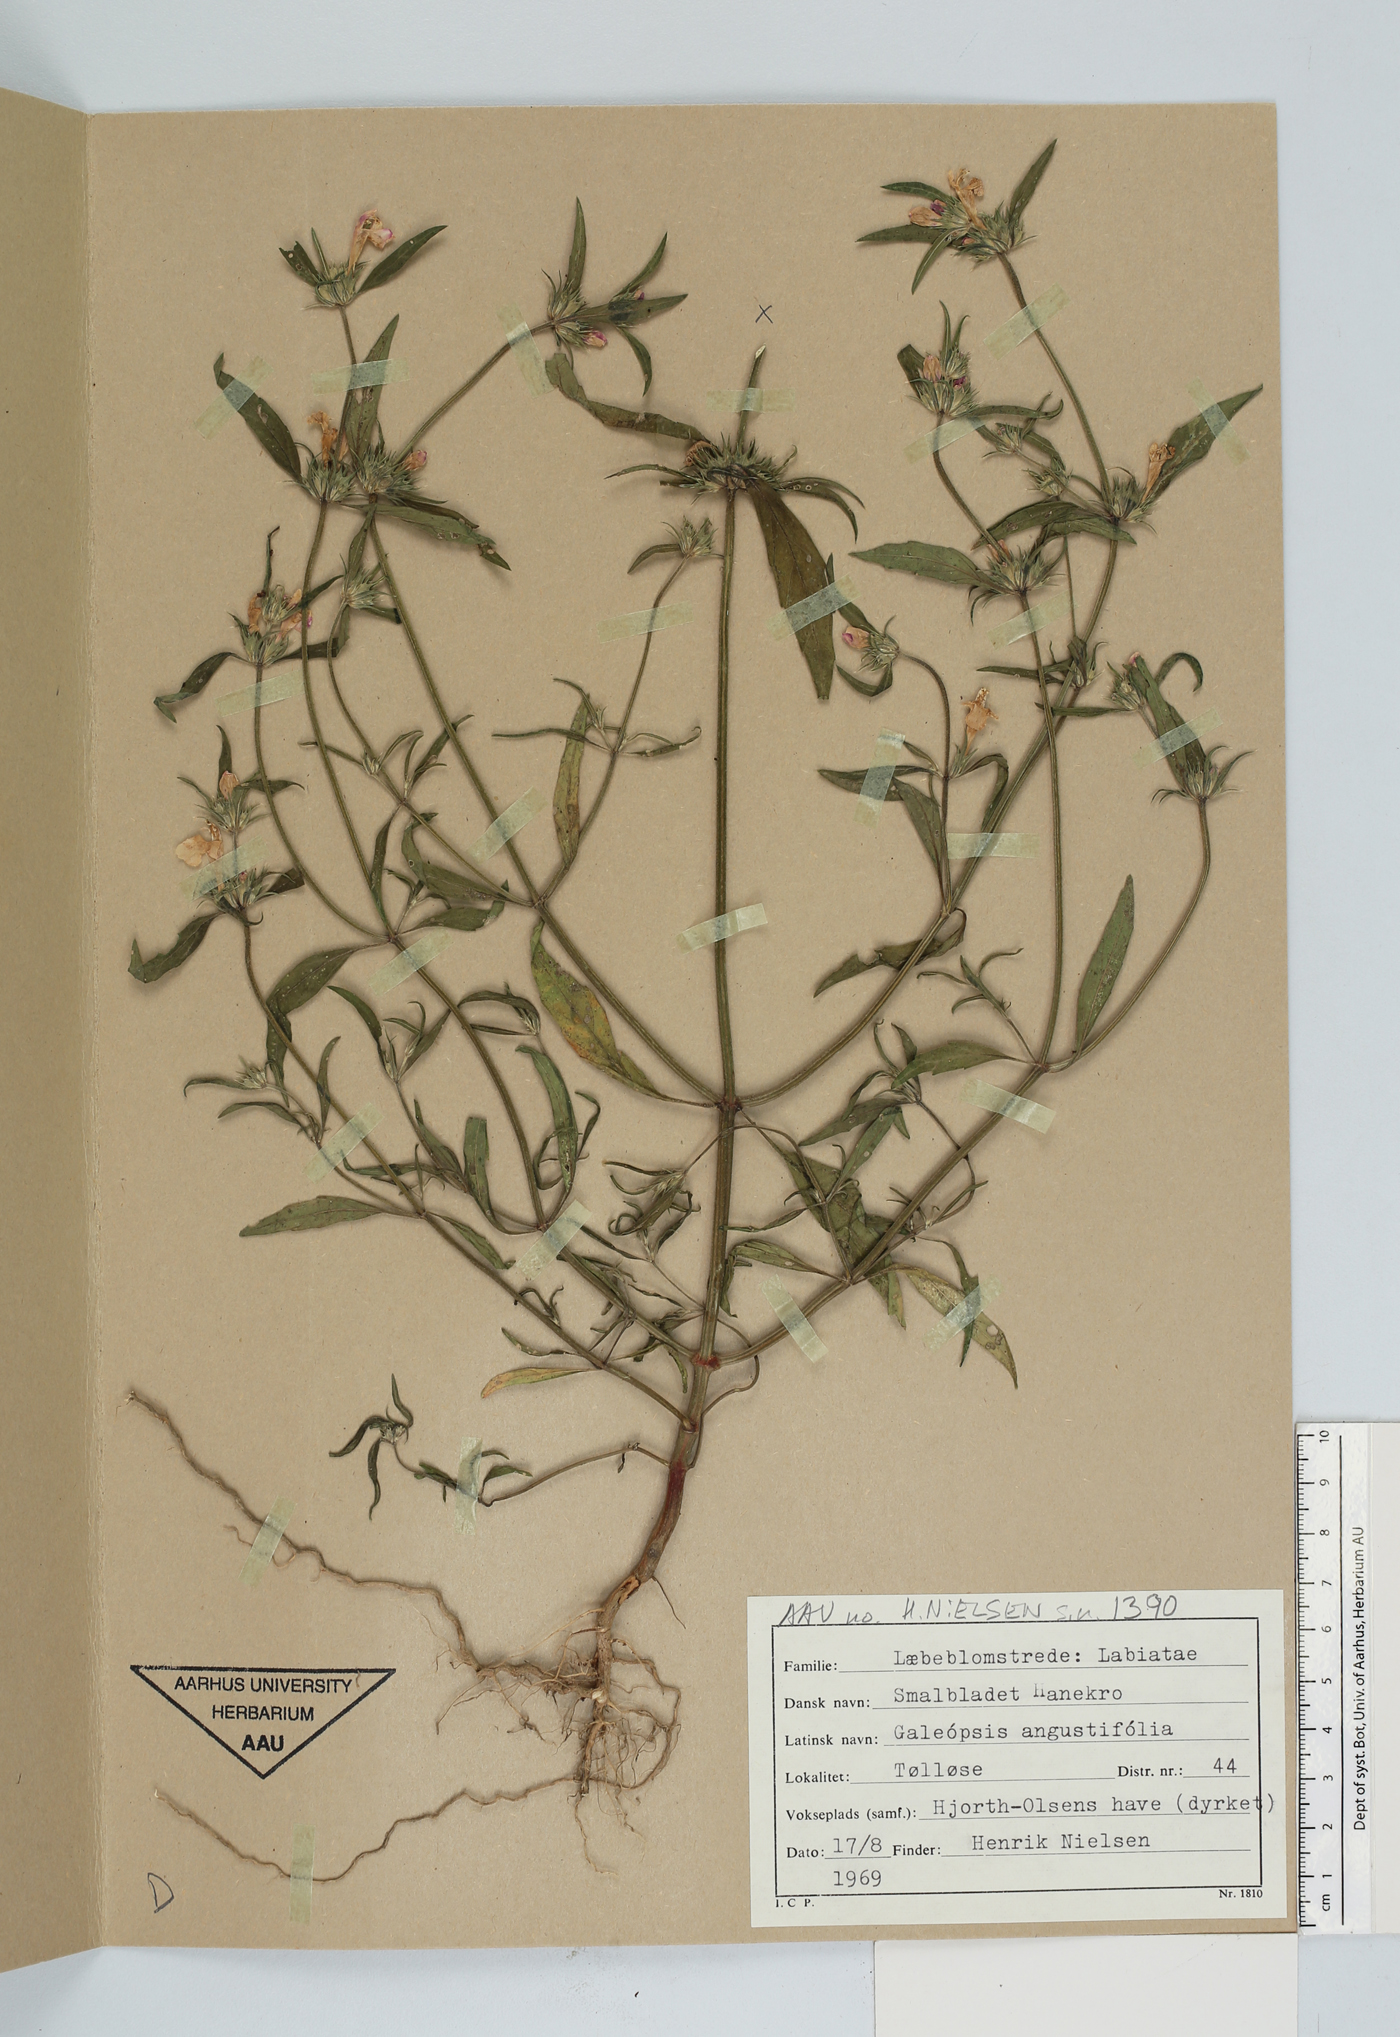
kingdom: Plantae
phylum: Tracheophyta
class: Magnoliopsida
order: Lamiales
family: Lamiaceae
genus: Galeopsis
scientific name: Galeopsis angustifolia
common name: Red hemp-nettle
